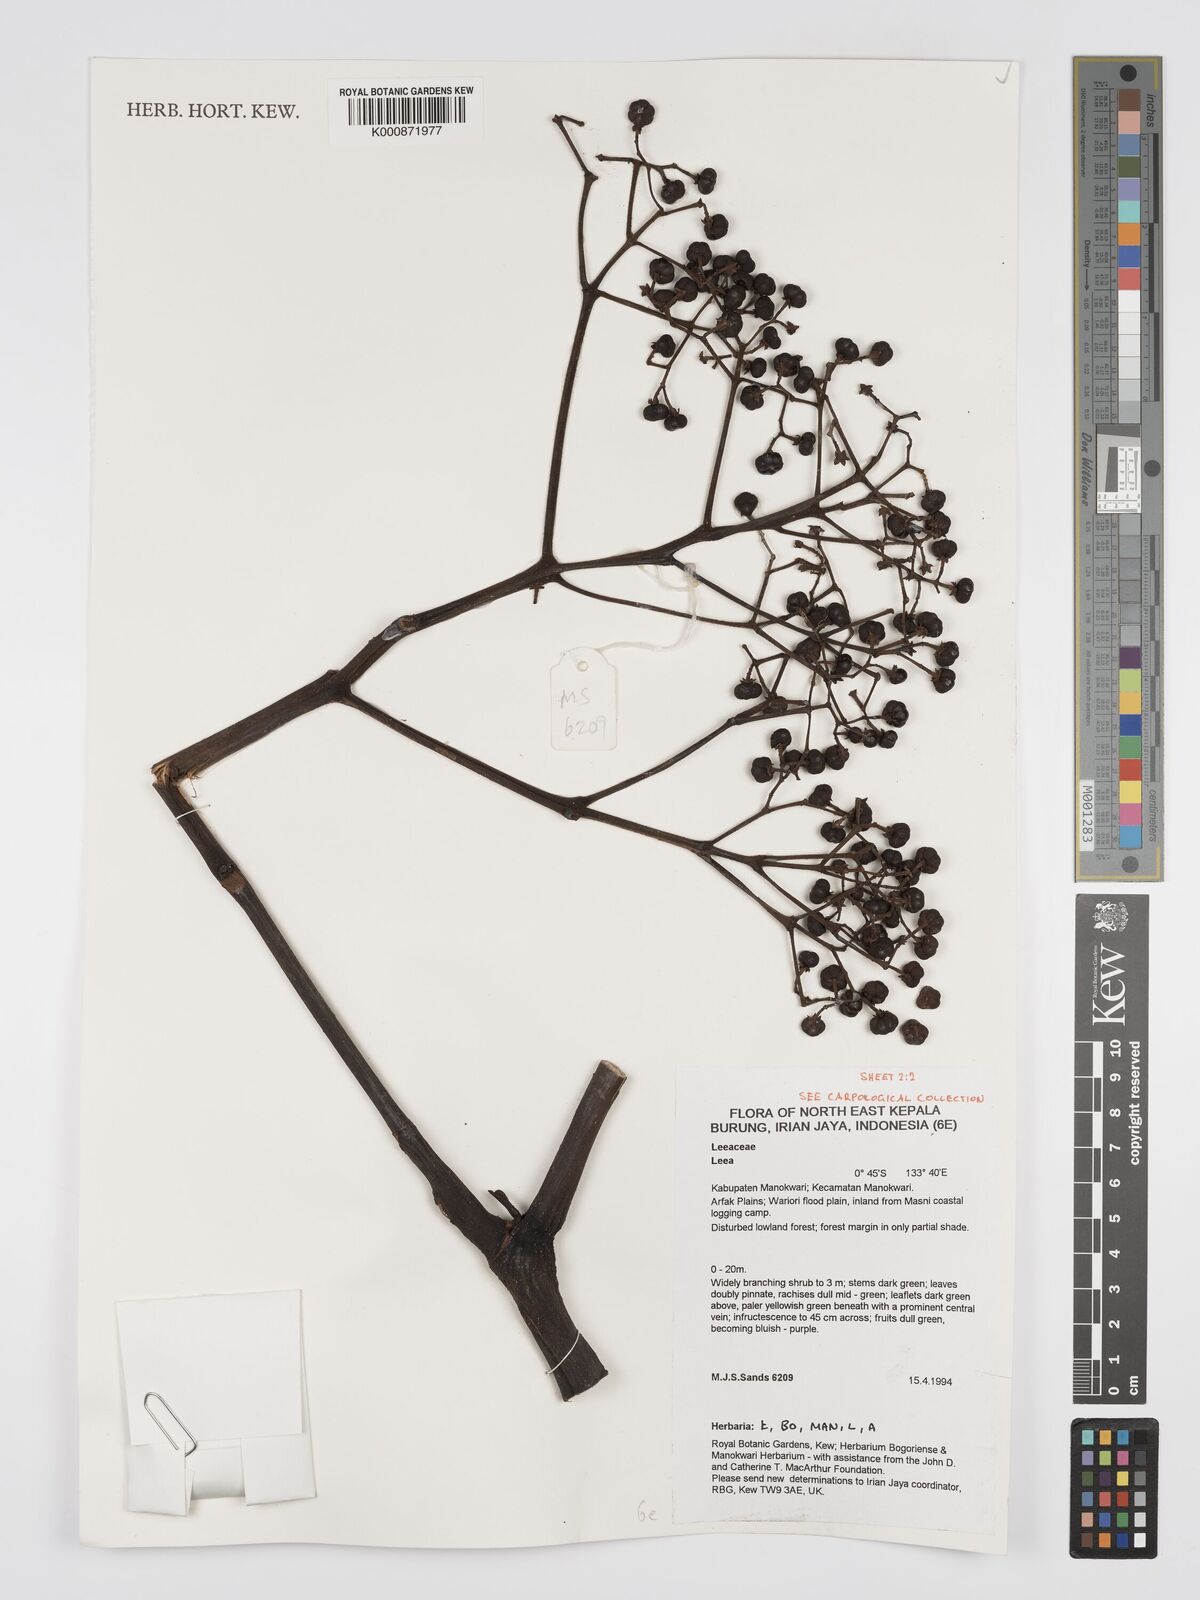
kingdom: Plantae
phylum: Tracheophyta
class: Magnoliopsida
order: Vitales
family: Vitaceae
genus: Leea
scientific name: Leea
